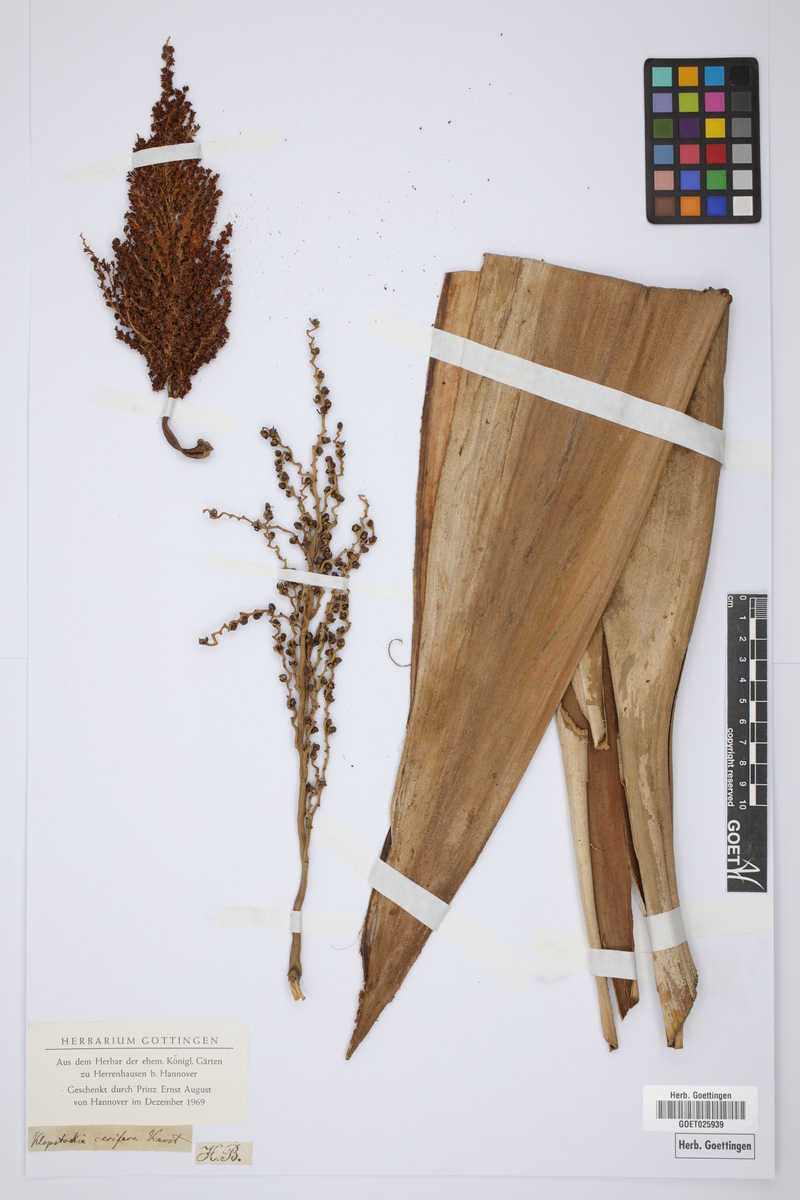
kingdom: Plantae
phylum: Tracheophyta
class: Liliopsida
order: Arecales
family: Arecaceae
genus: Ceroxylon
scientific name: Ceroxylon ceriferum
